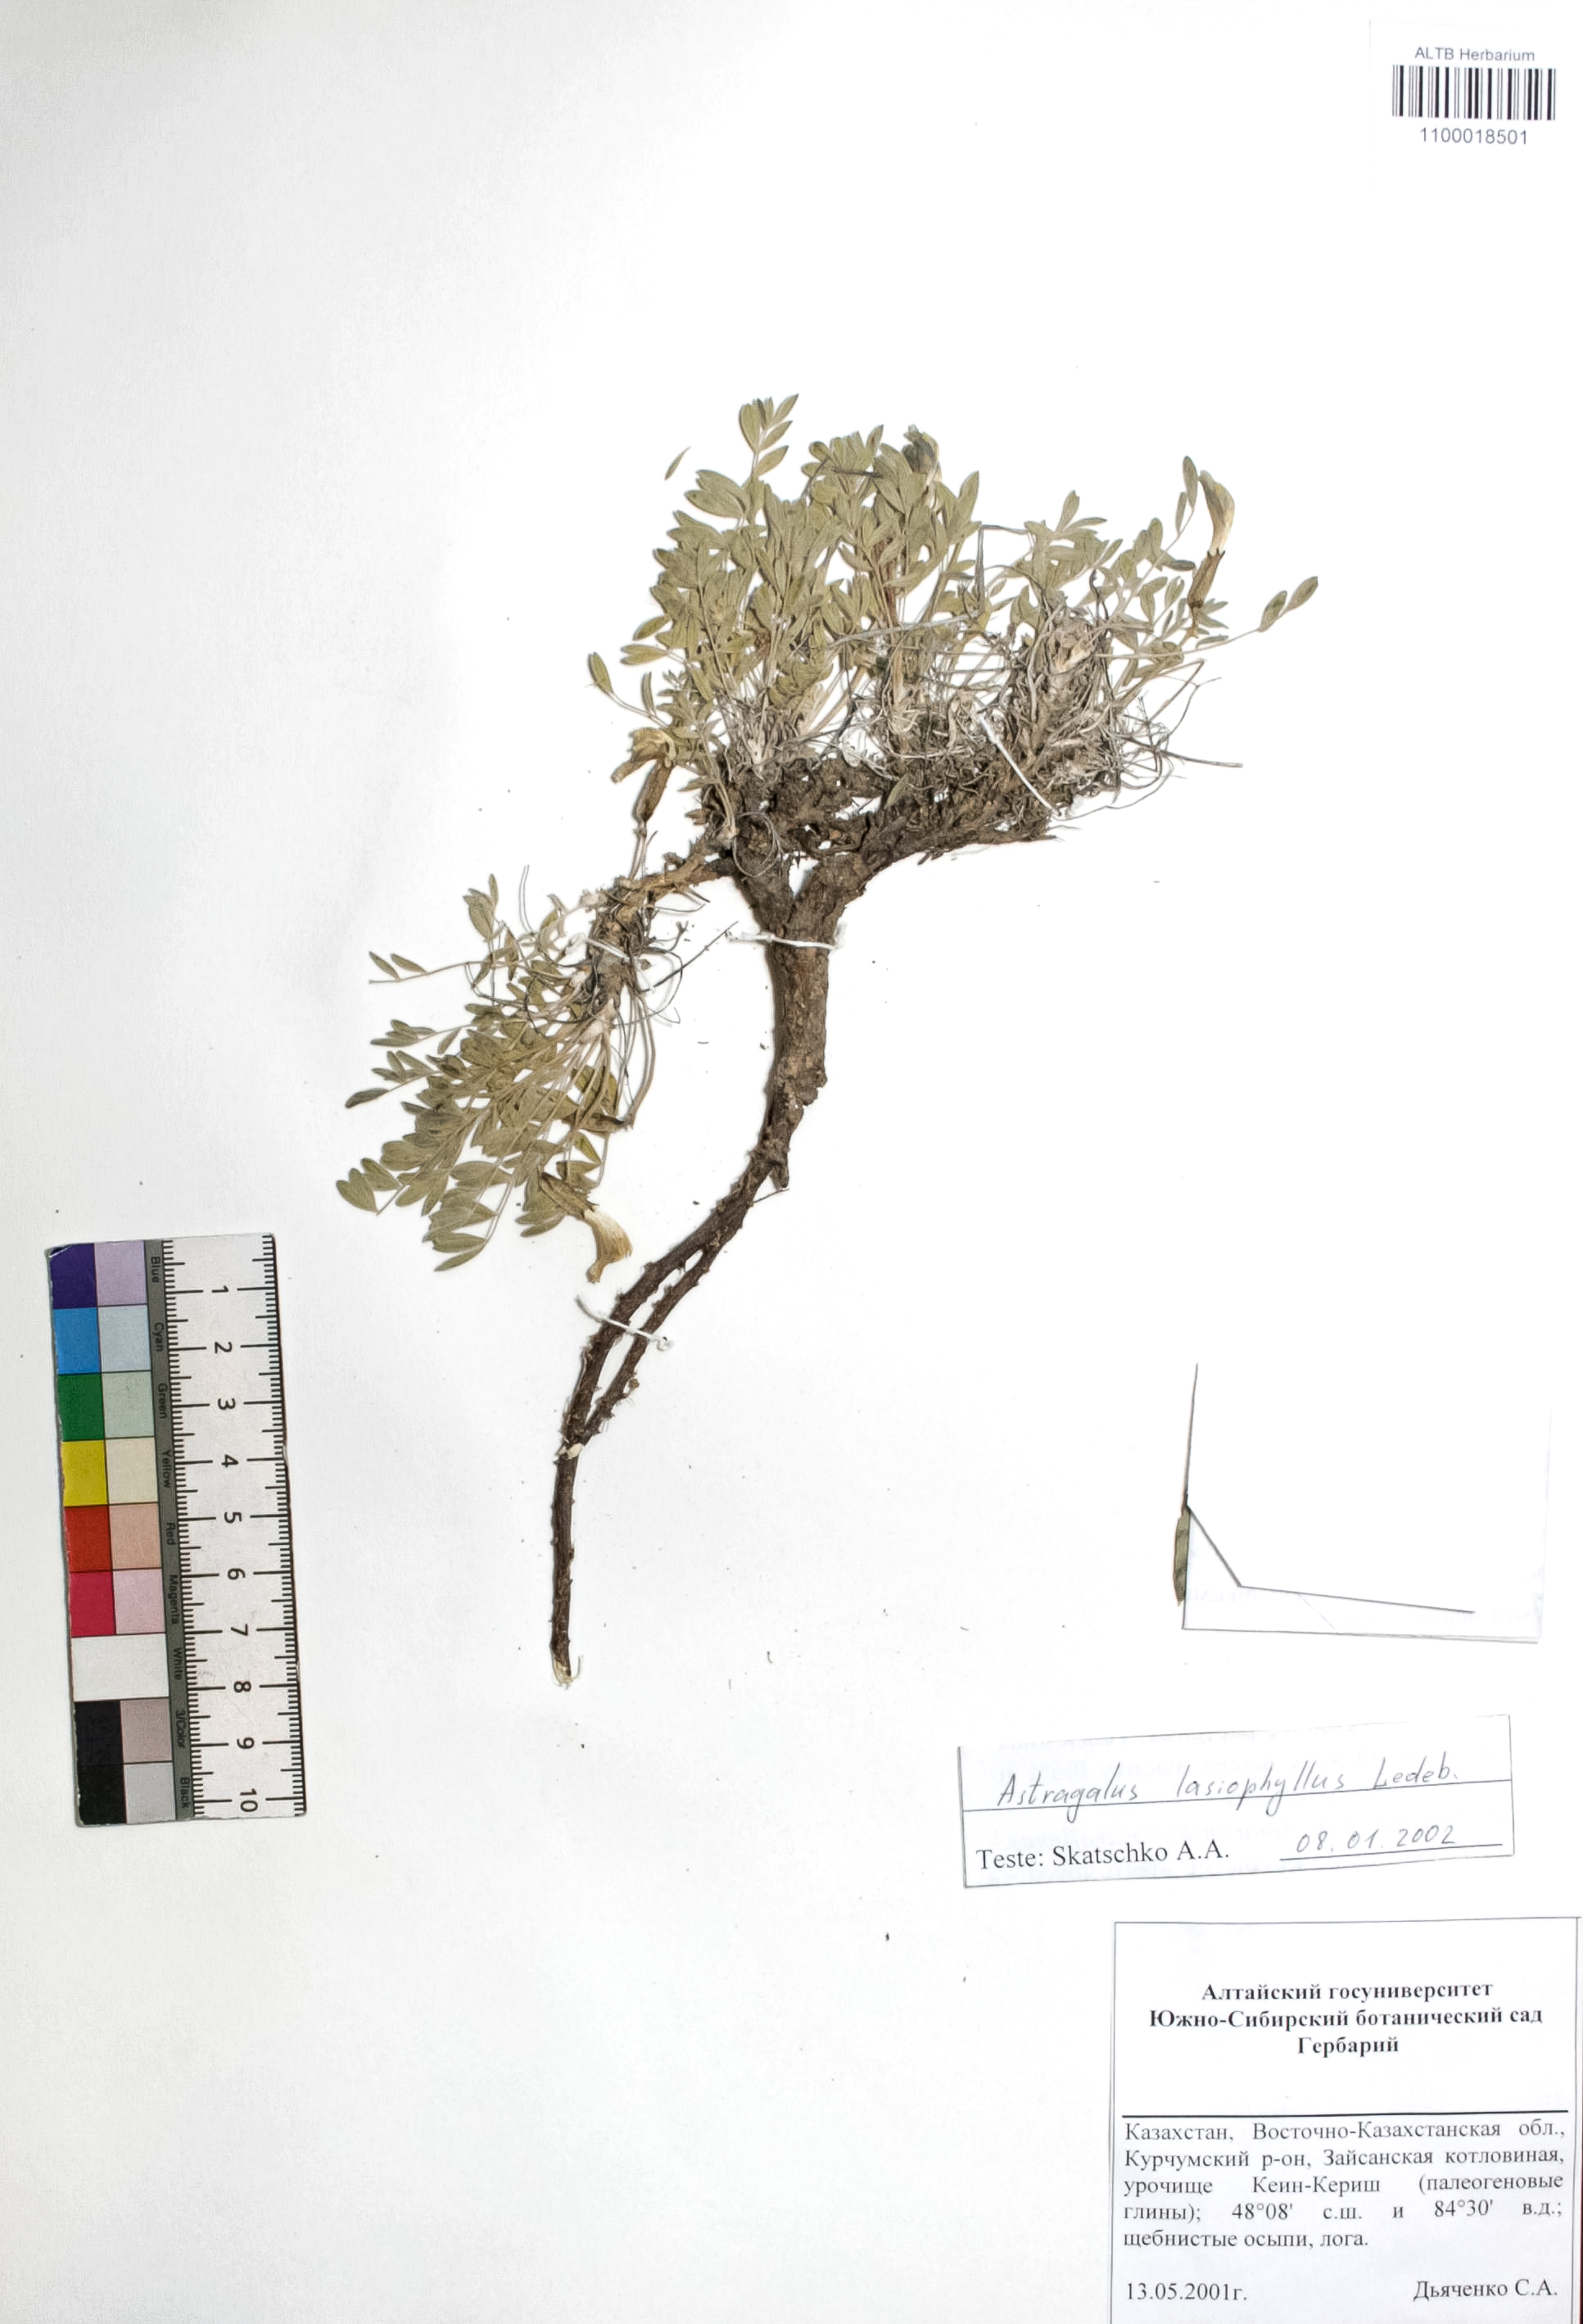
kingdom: Plantae
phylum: Tracheophyta
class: Magnoliopsida
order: Fabales
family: Fabaceae
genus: Astragalus
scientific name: Astragalus pallasii
